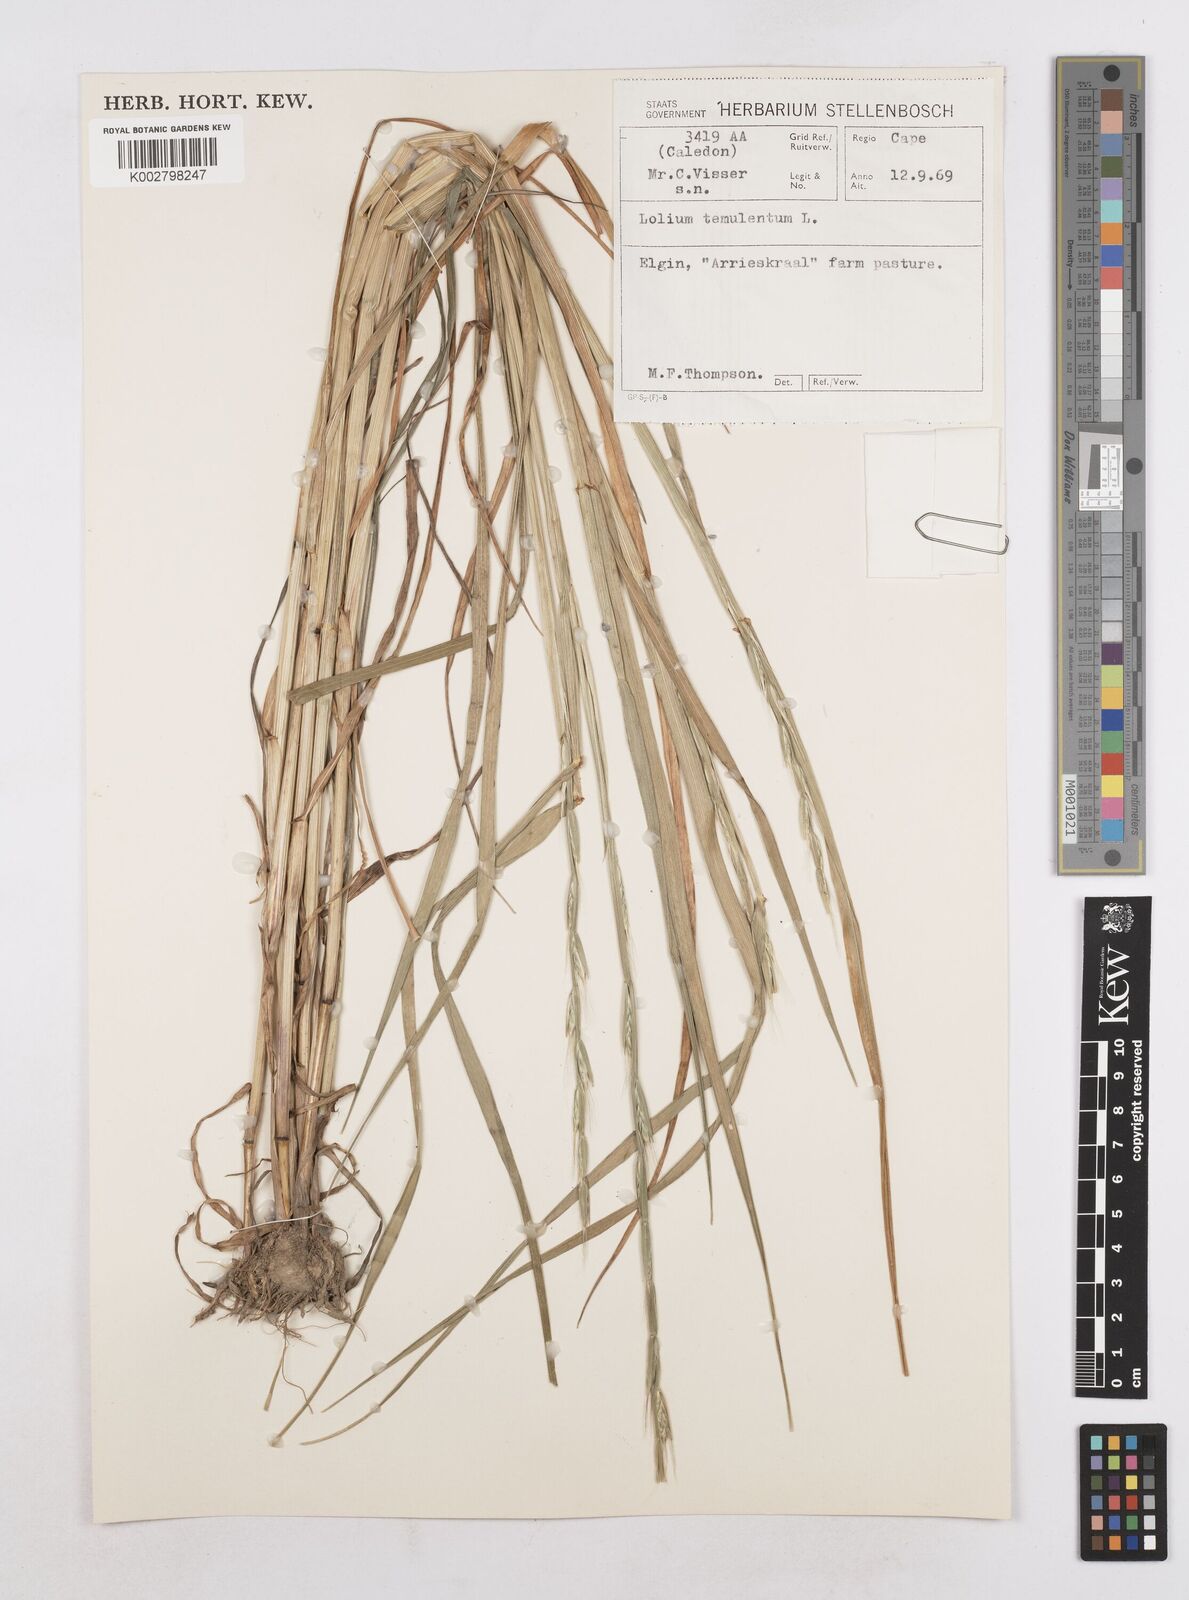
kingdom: Plantae
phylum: Tracheophyta
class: Liliopsida
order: Poales
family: Poaceae
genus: Lolium
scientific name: Lolium temulentum
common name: Darnel
